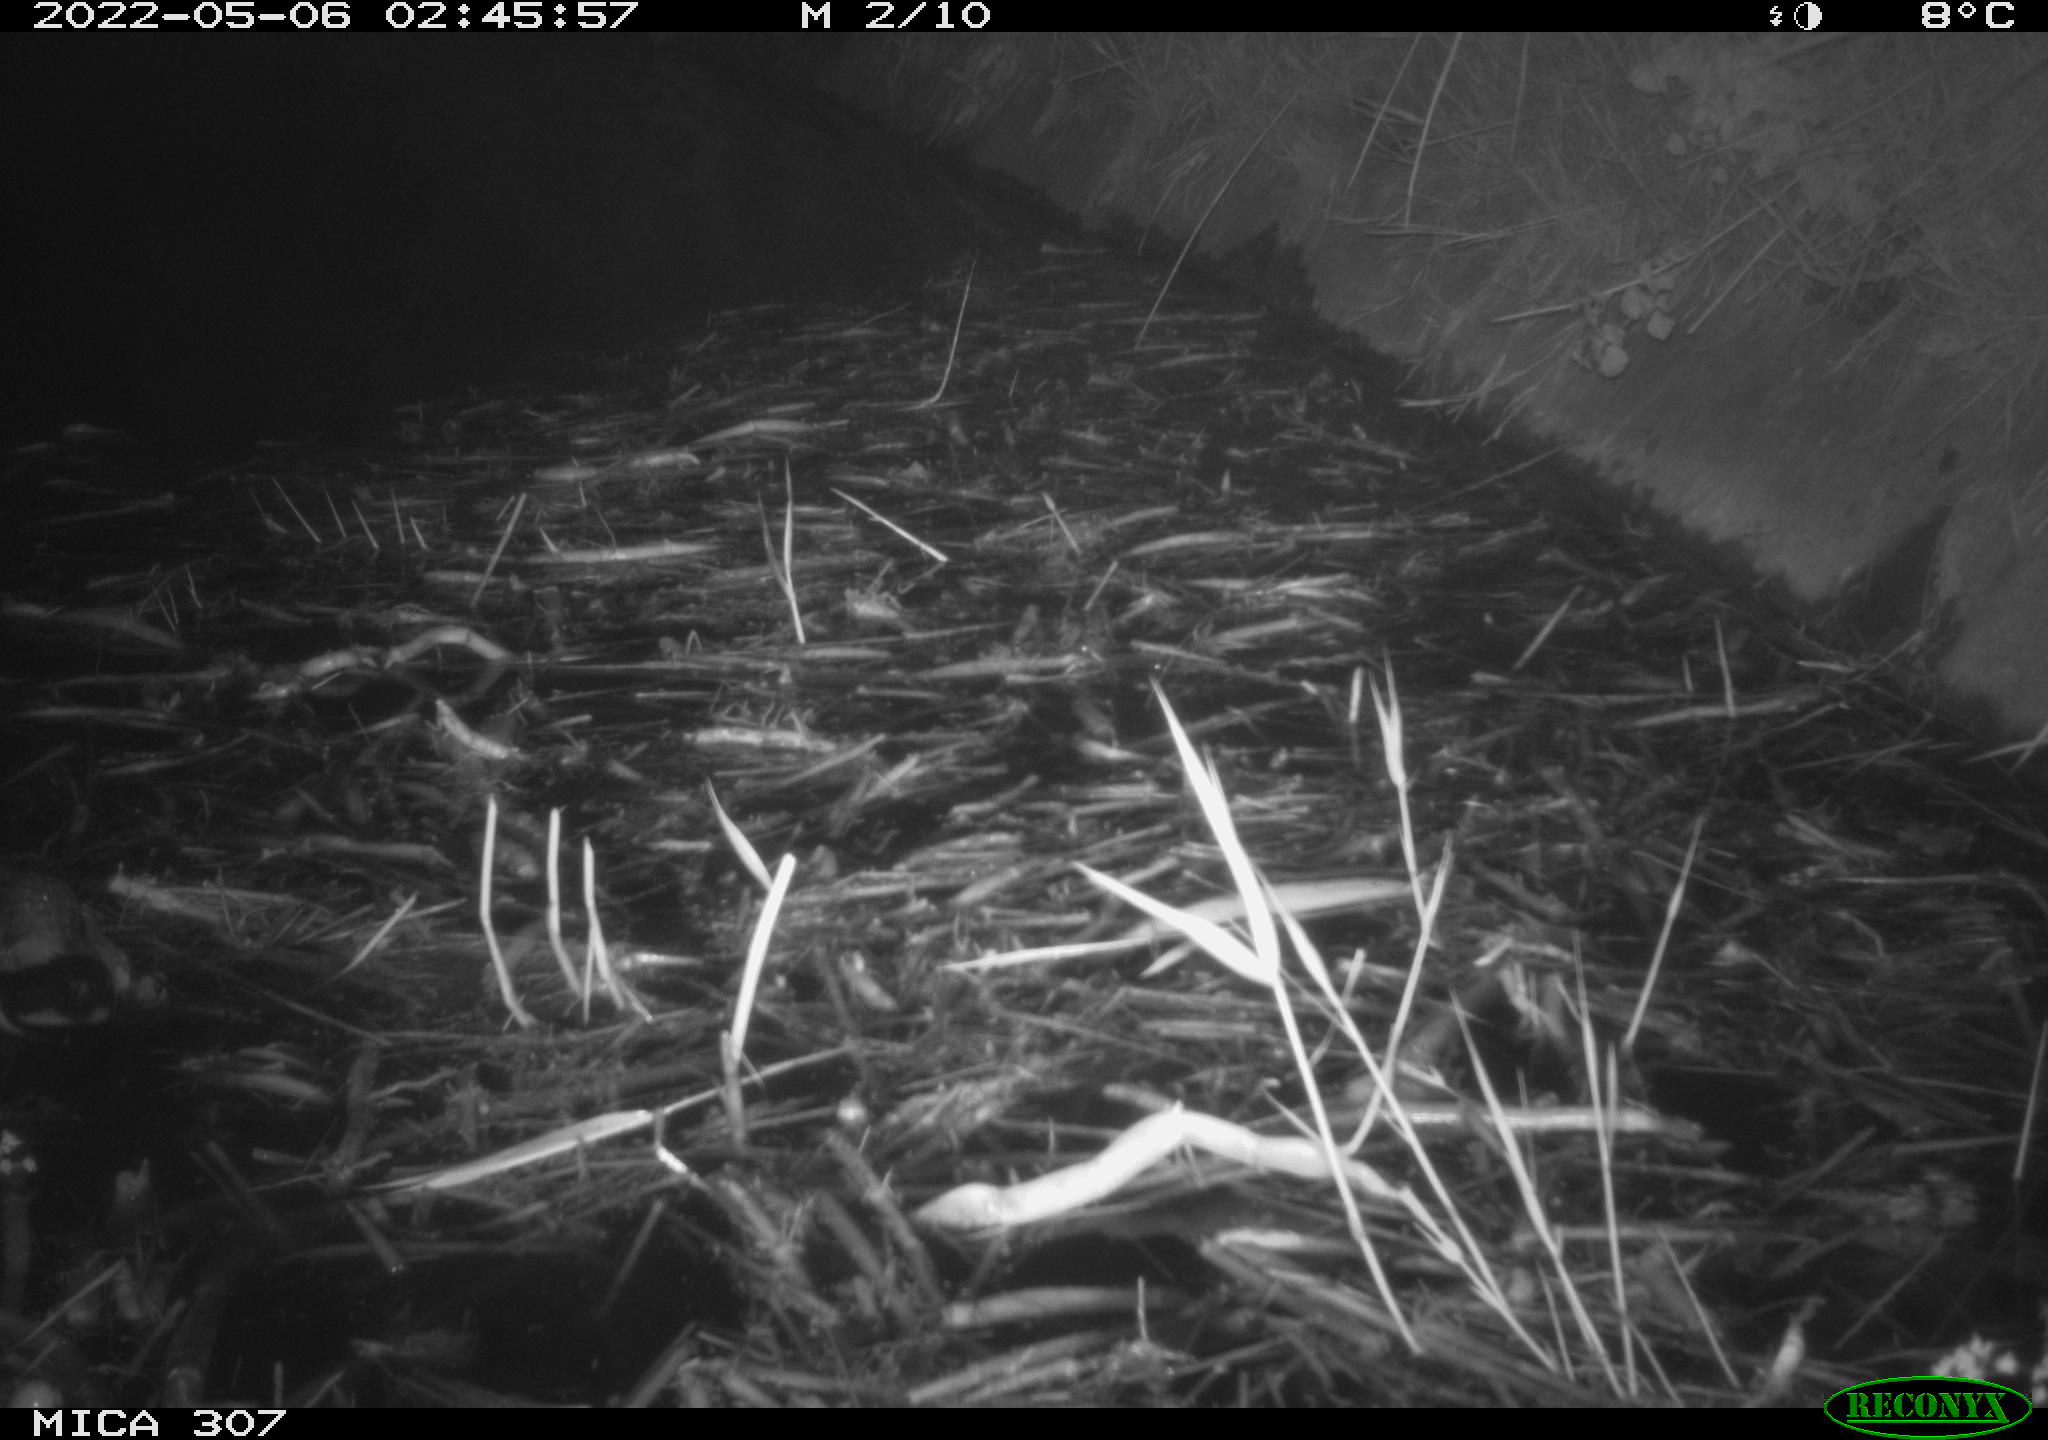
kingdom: Animalia
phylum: Chordata
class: Aves
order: Anseriformes
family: Anatidae
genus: Anas
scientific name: Anas platyrhynchos
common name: Mallard
